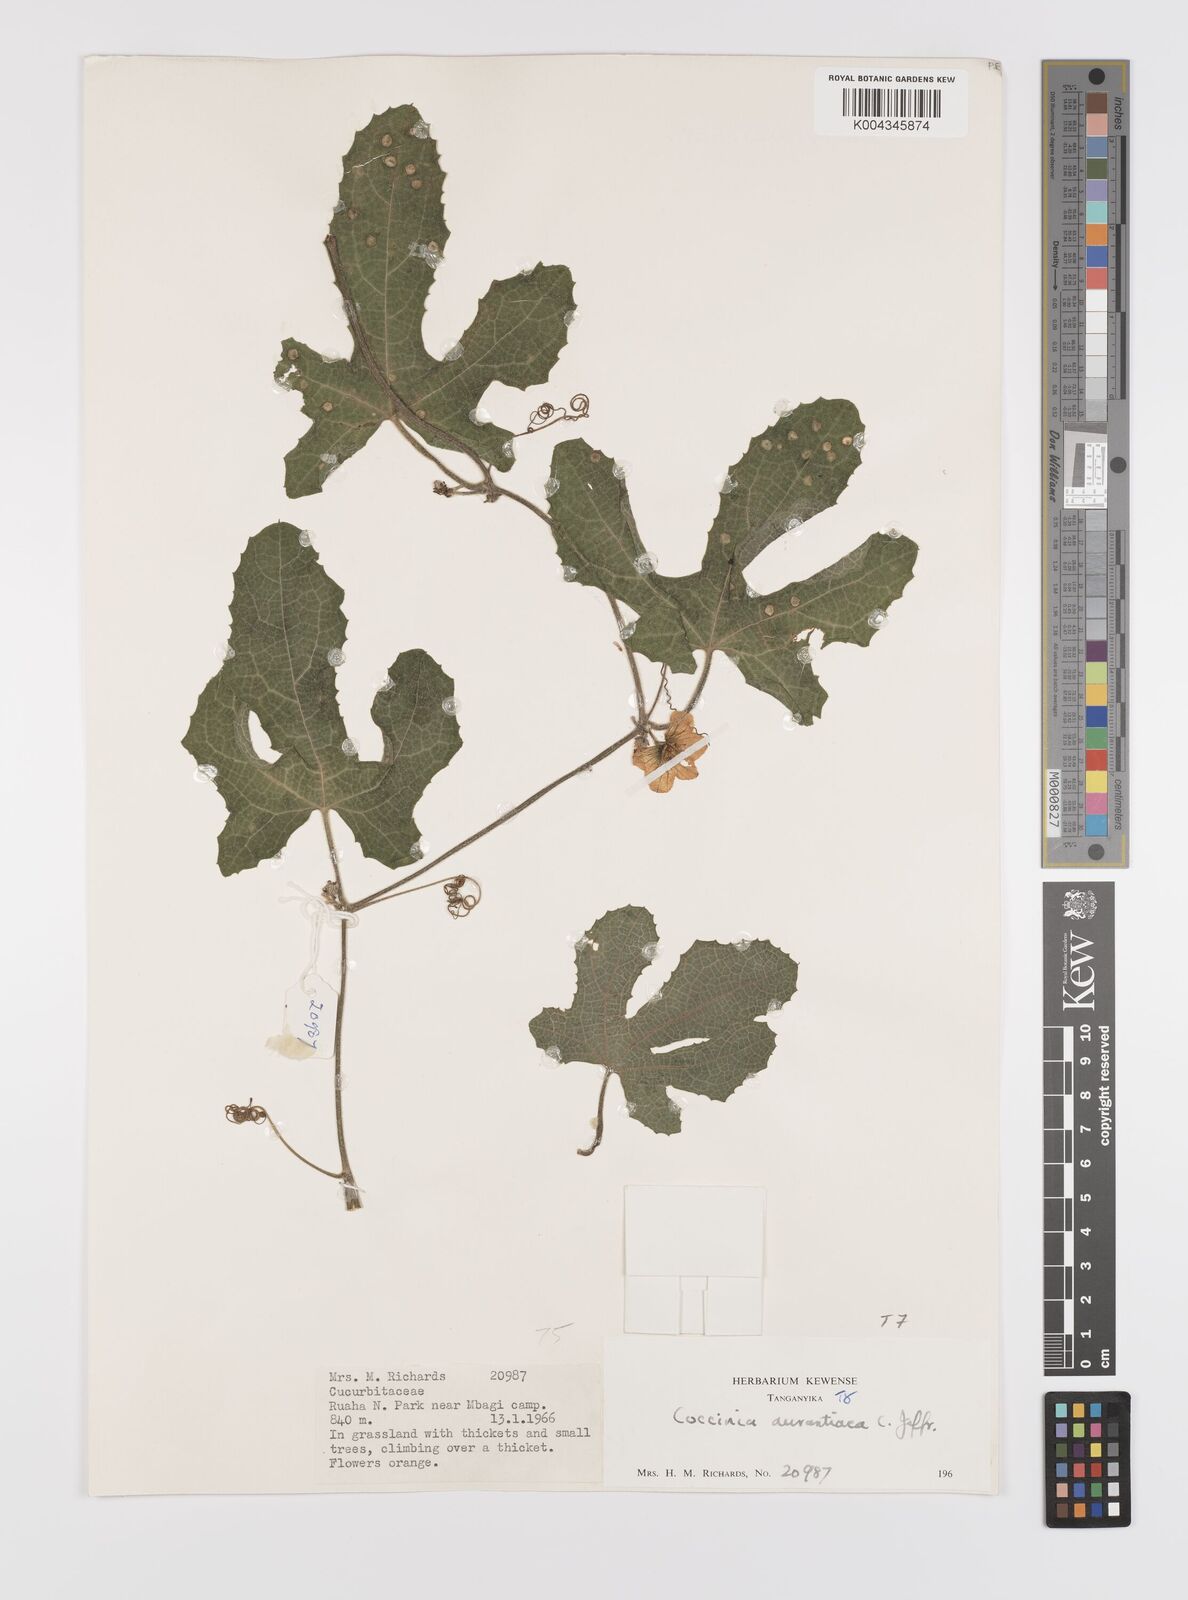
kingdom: Plantae
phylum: Tracheophyta
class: Magnoliopsida
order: Cucurbitales
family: Cucurbitaceae
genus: Coccinia
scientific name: Coccinia adoensis
